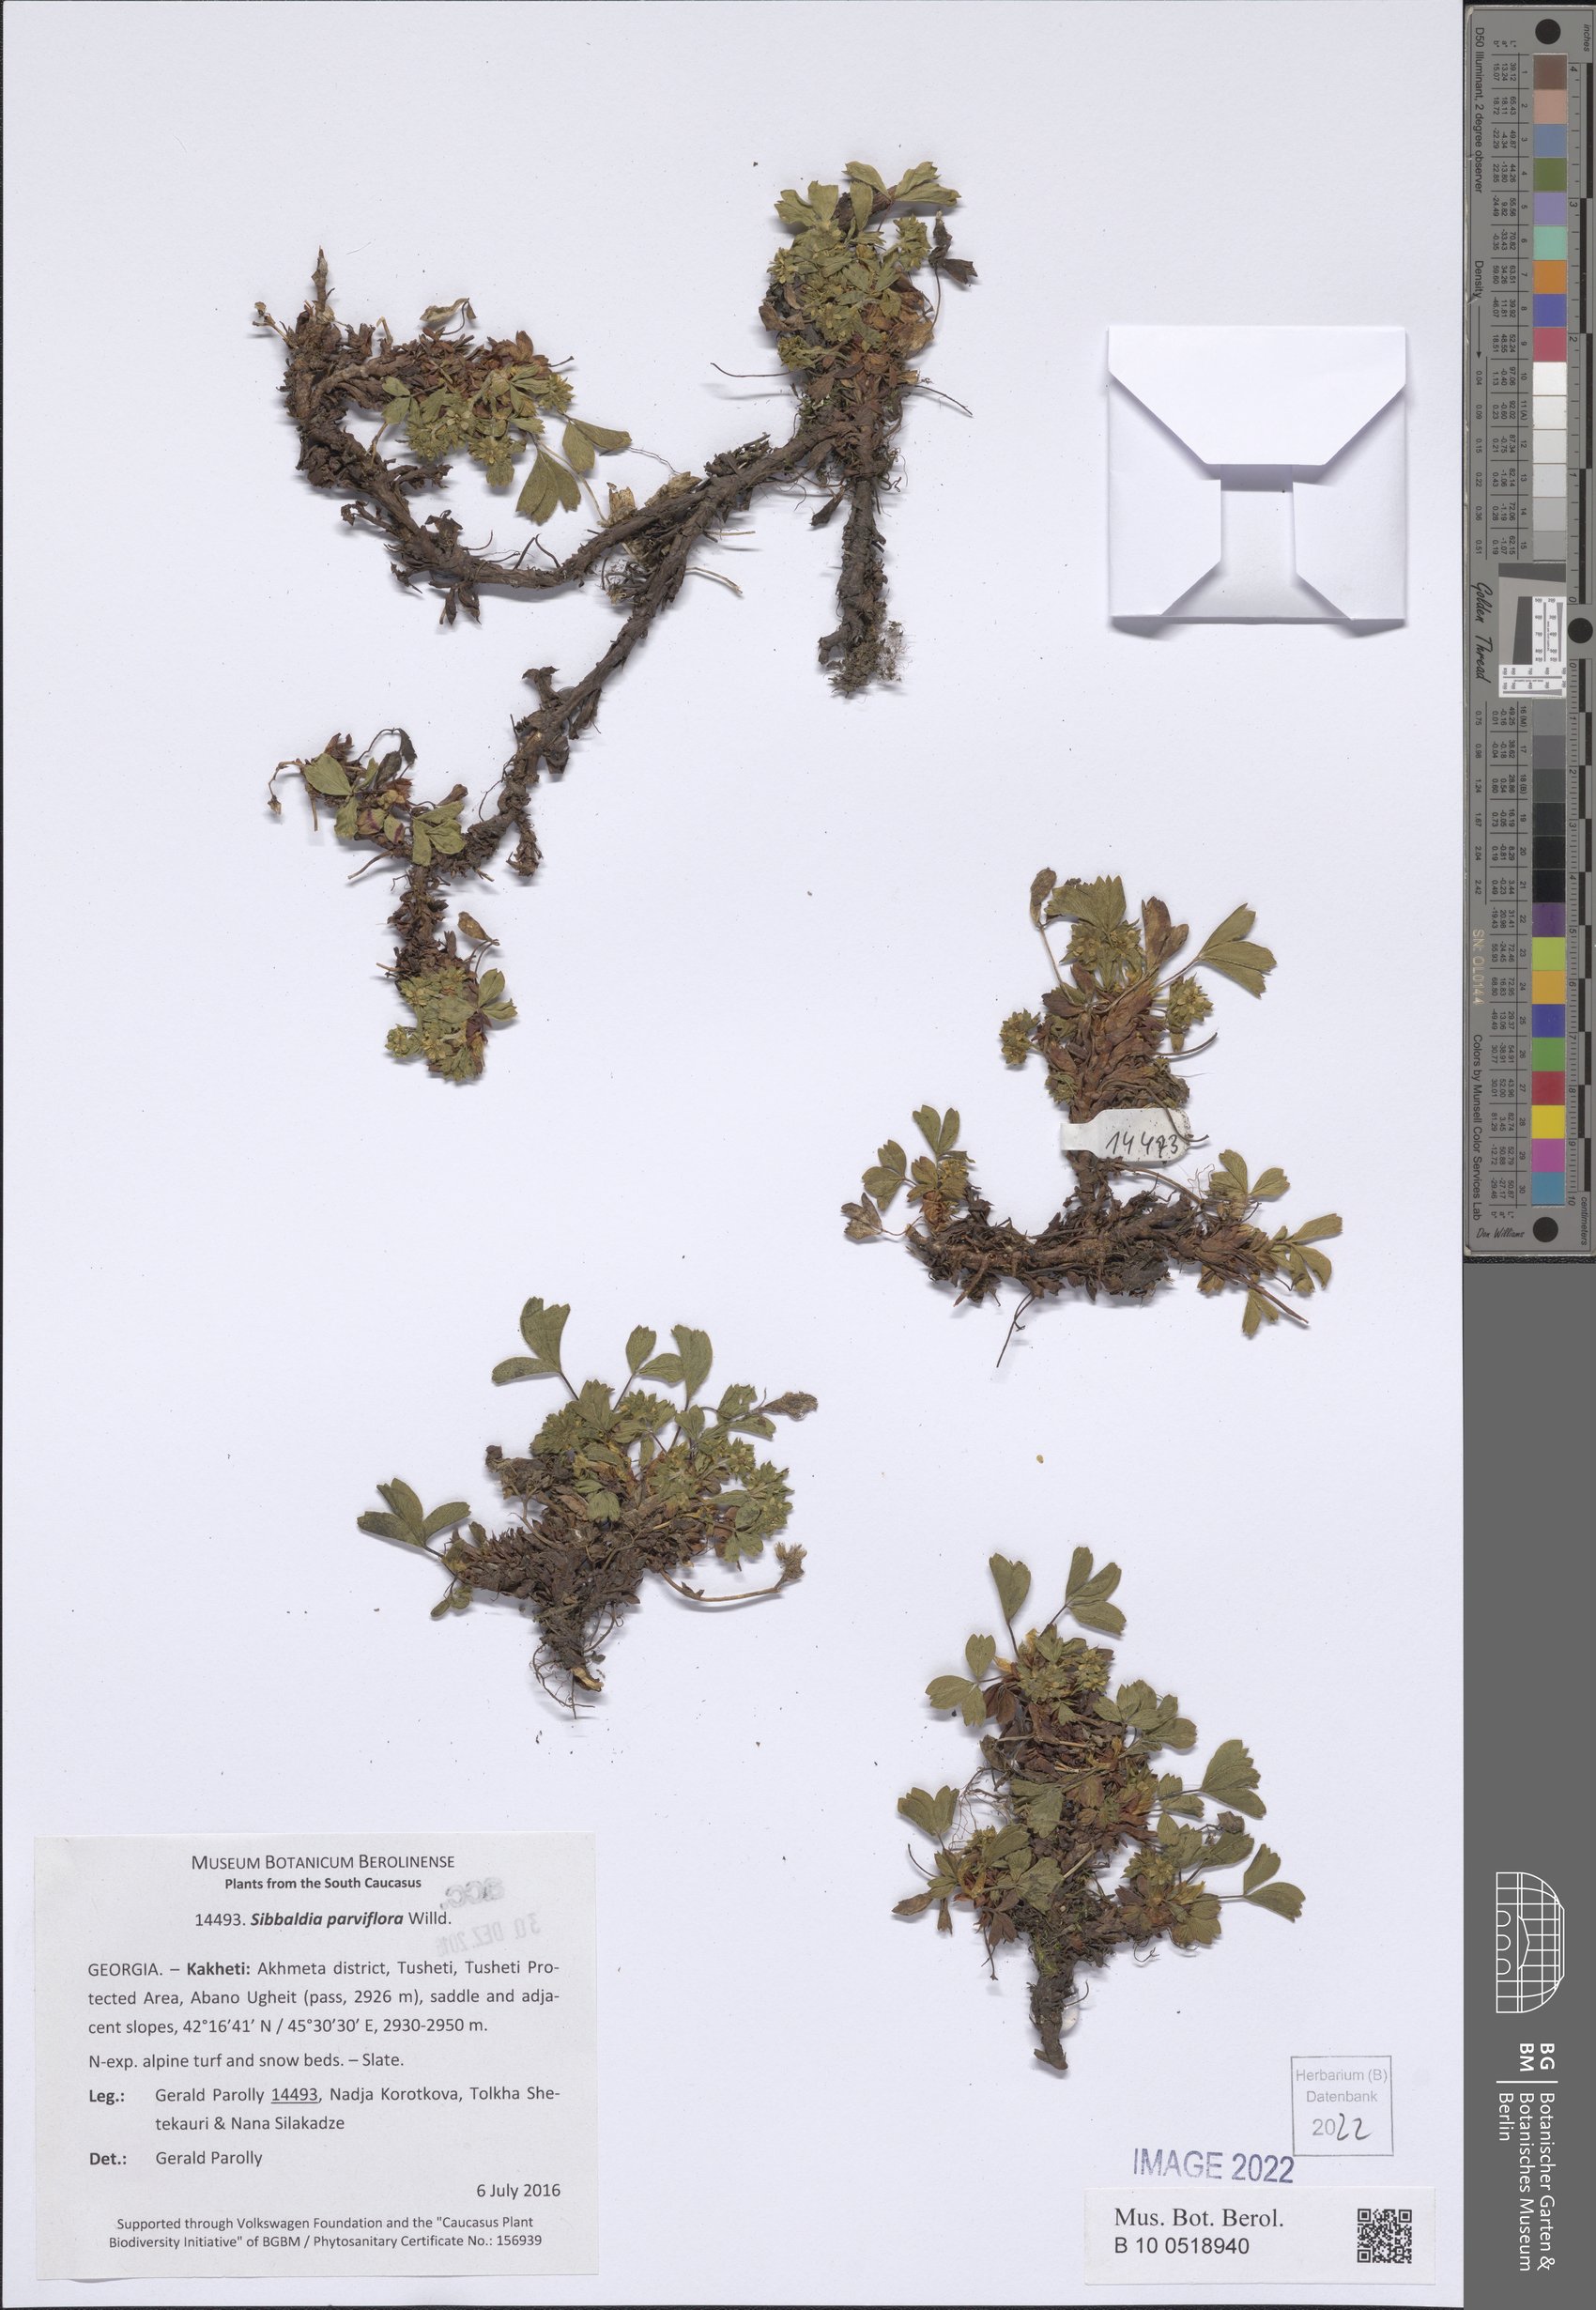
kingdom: Plantae
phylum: Tracheophyta
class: Magnoliopsida
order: Rosales
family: Rosaceae
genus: Sibbaldia
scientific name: Sibbaldia parviflora
